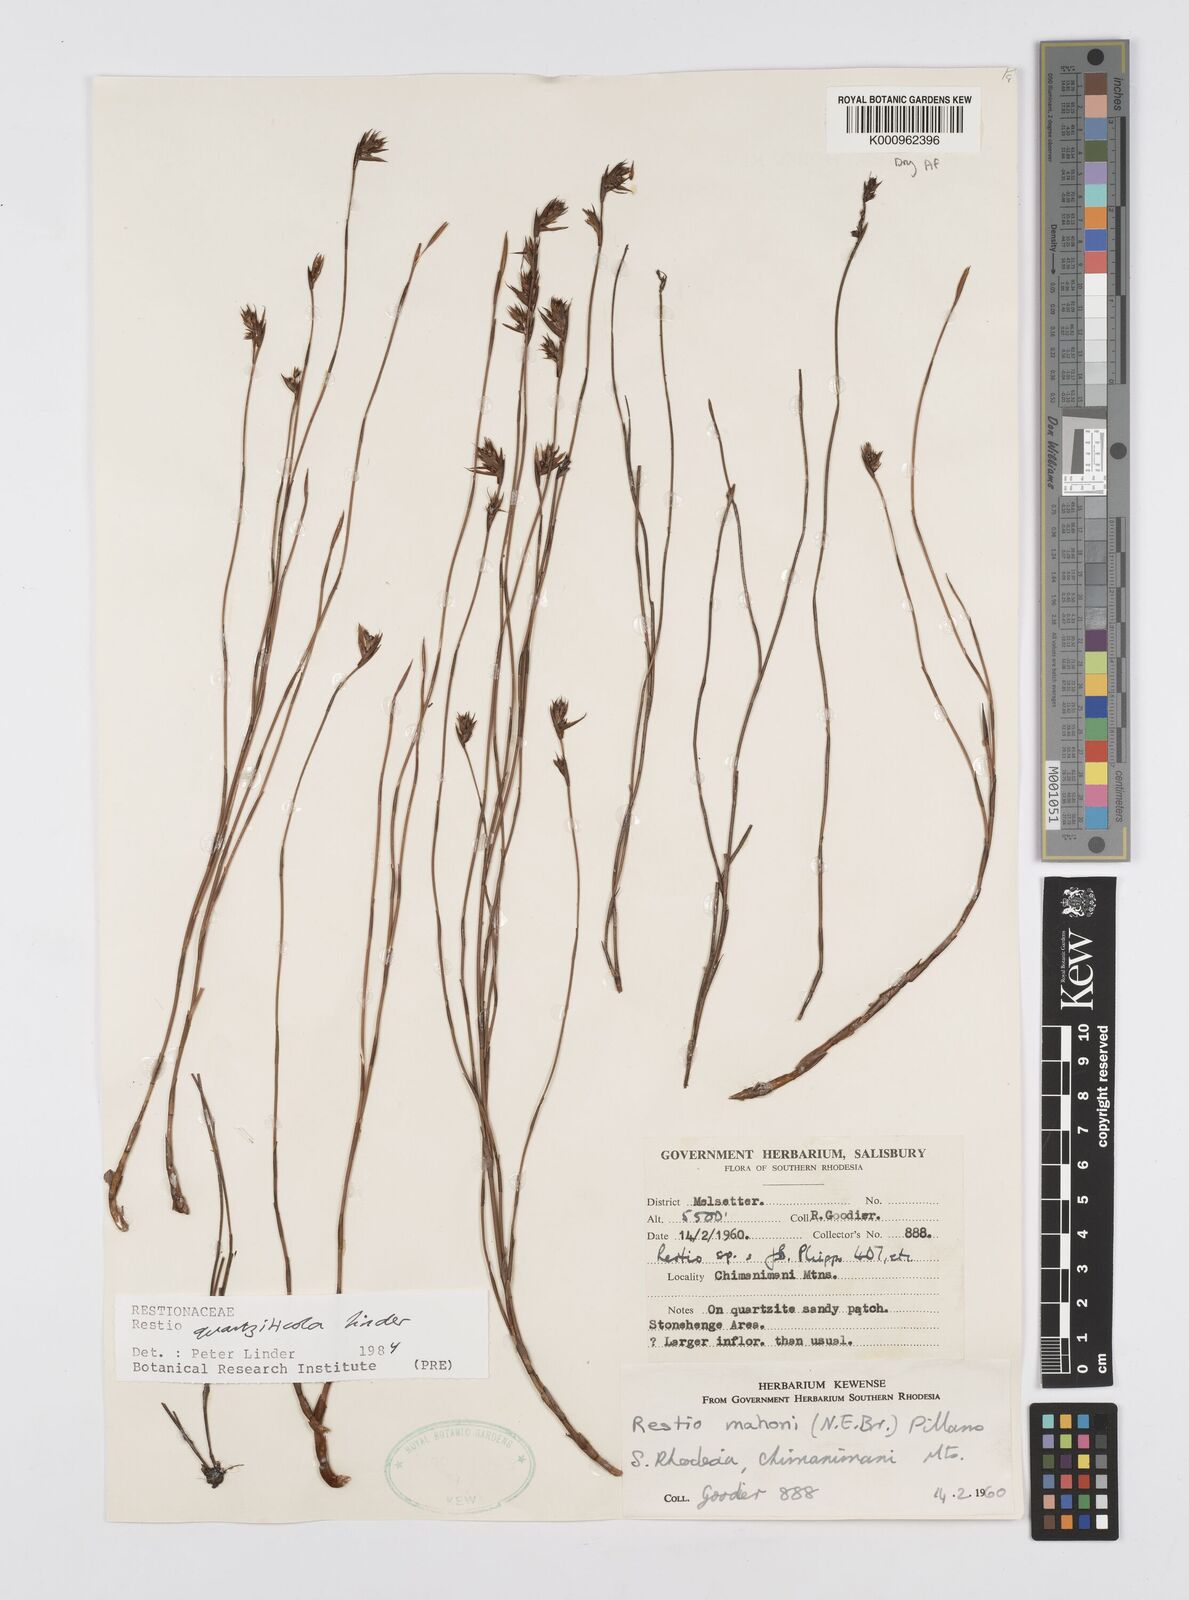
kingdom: Plantae
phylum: Tracheophyta
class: Liliopsida
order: Poales
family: Restionaceae
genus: Platycaulos
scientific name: Platycaulos quartziticola
